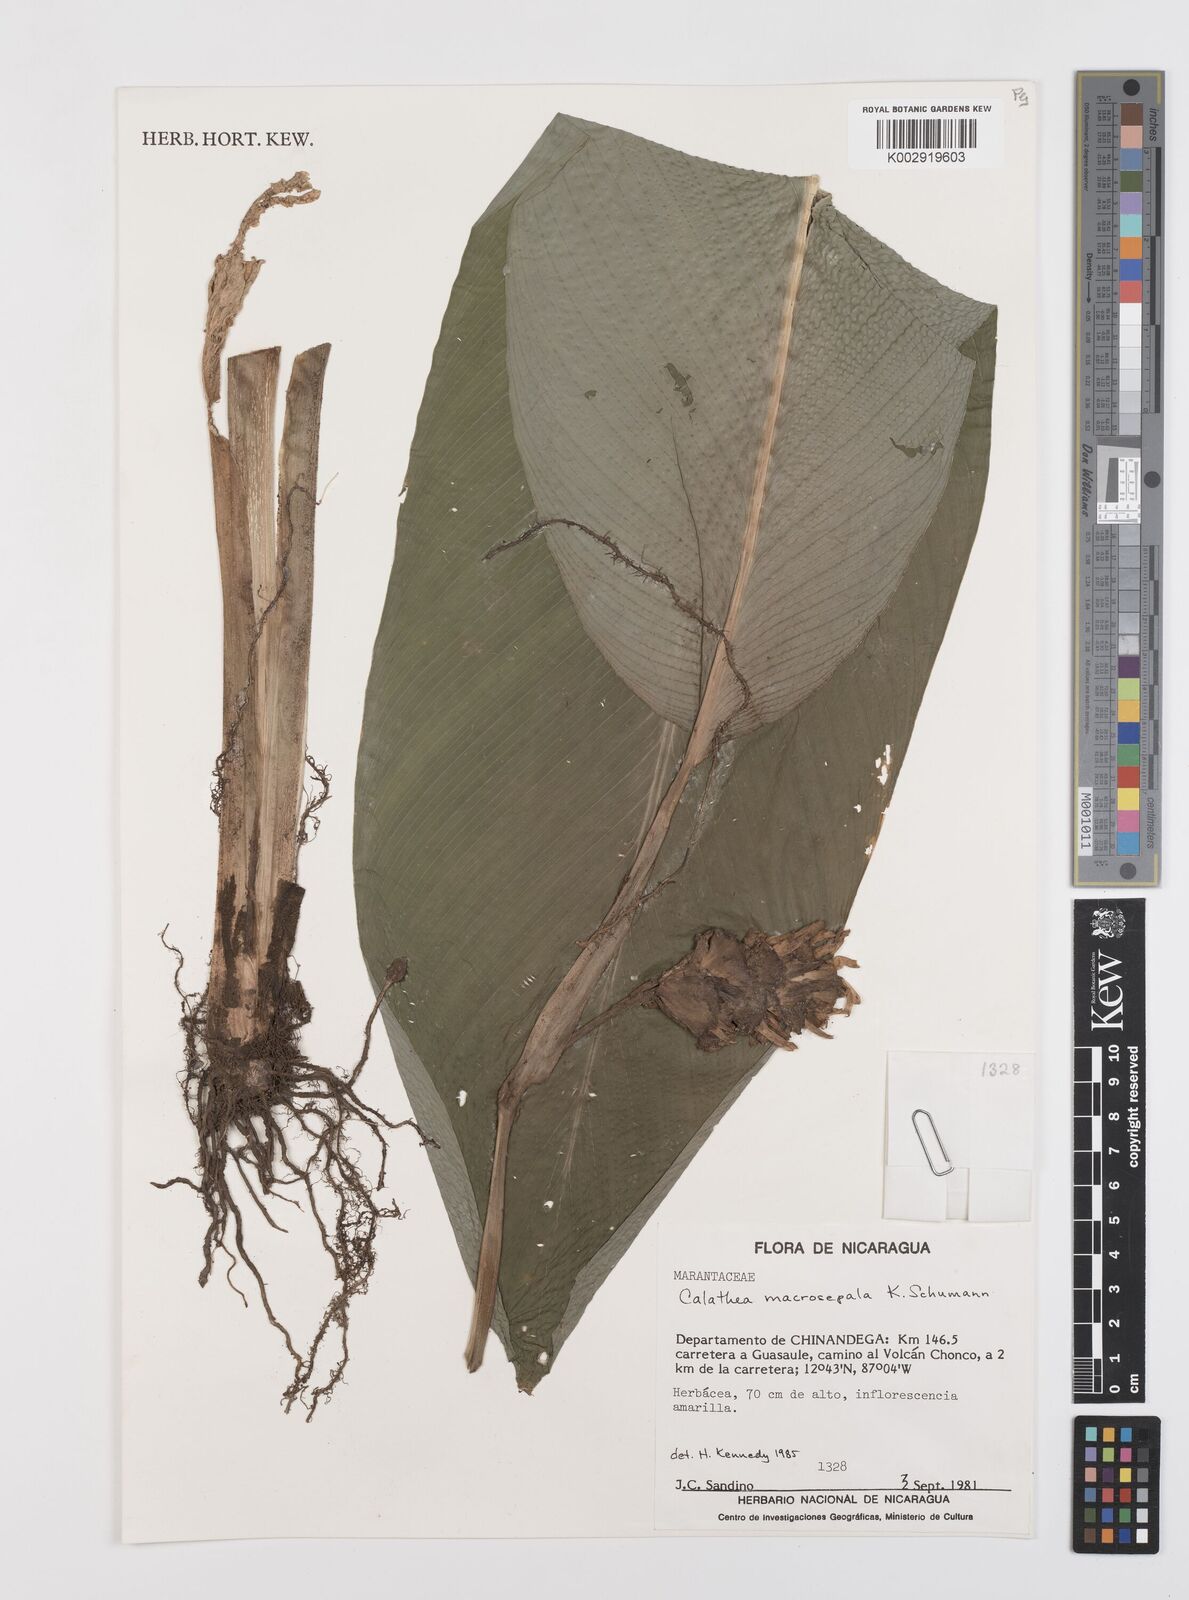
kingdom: Plantae
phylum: Tracheophyta
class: Liliopsida
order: Zingiberales
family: Marantaceae
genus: Goeppertia
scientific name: Goeppertia macrosepala
